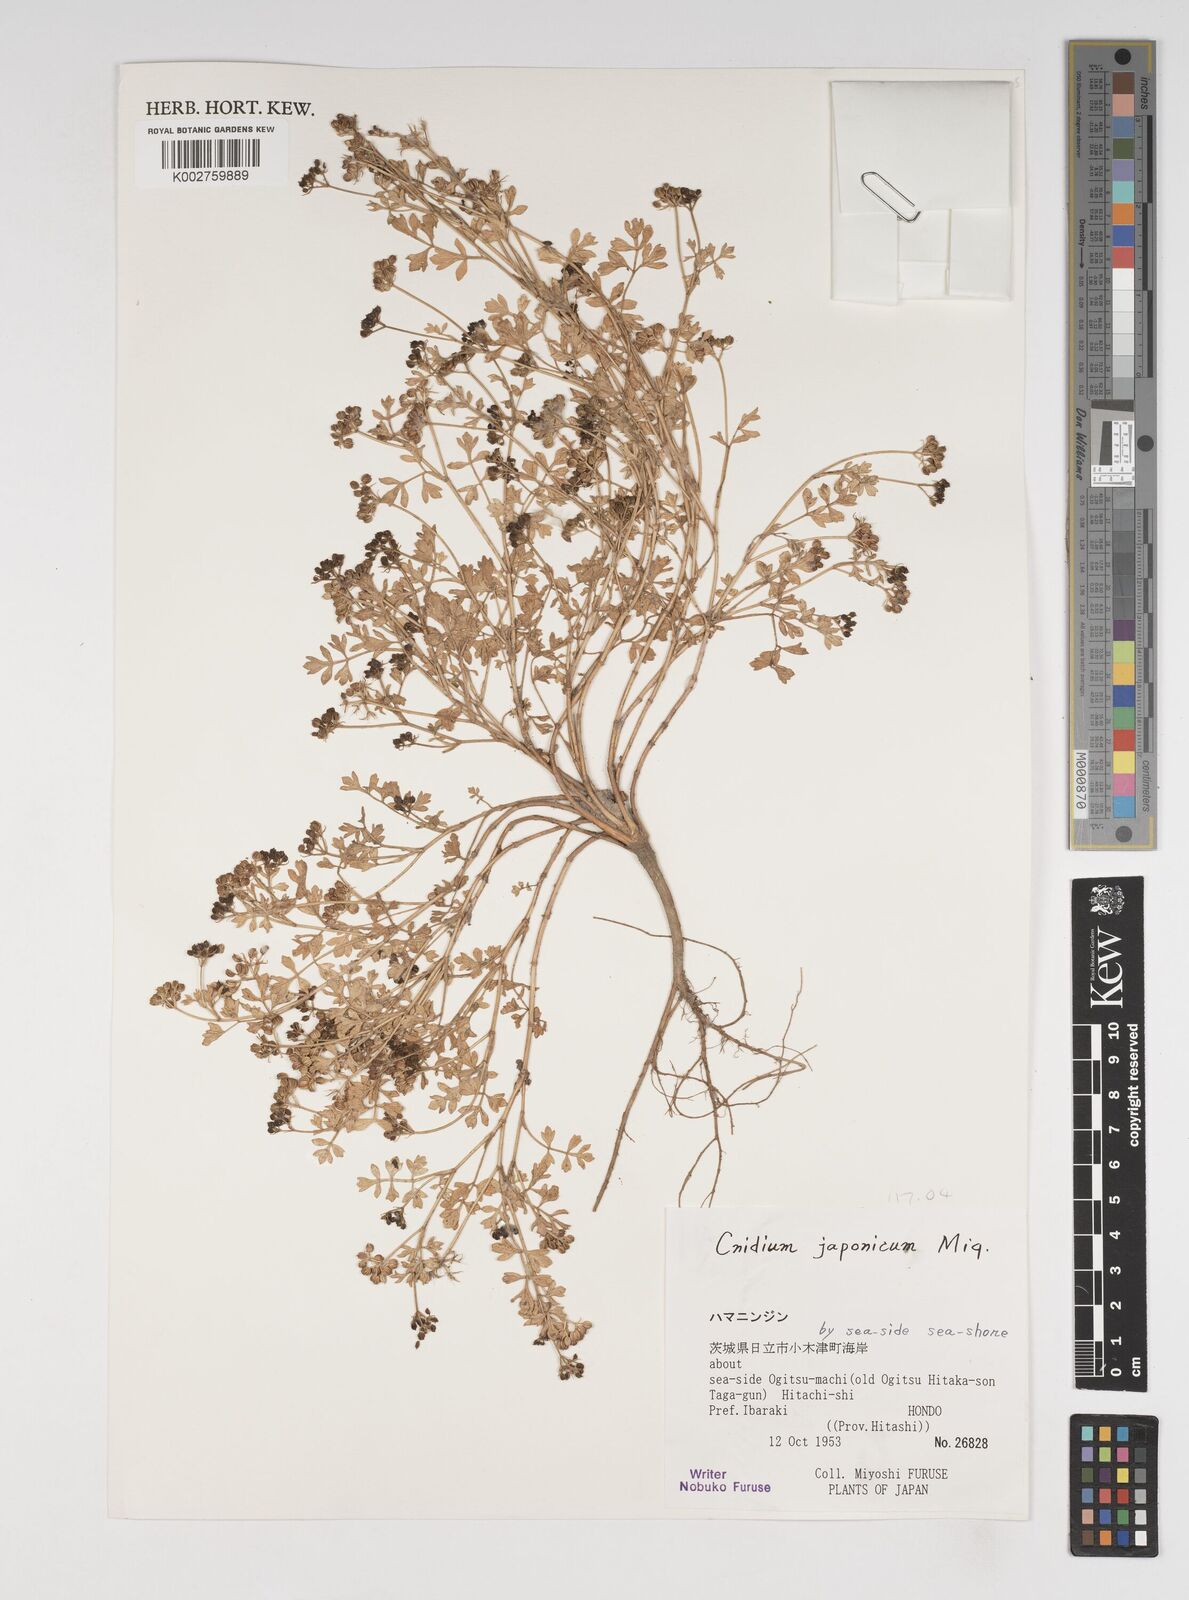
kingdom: Plantae
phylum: Tracheophyta
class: Magnoliopsida
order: Apiales
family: Apiaceae
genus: Cnidium
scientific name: Cnidium japonicum
